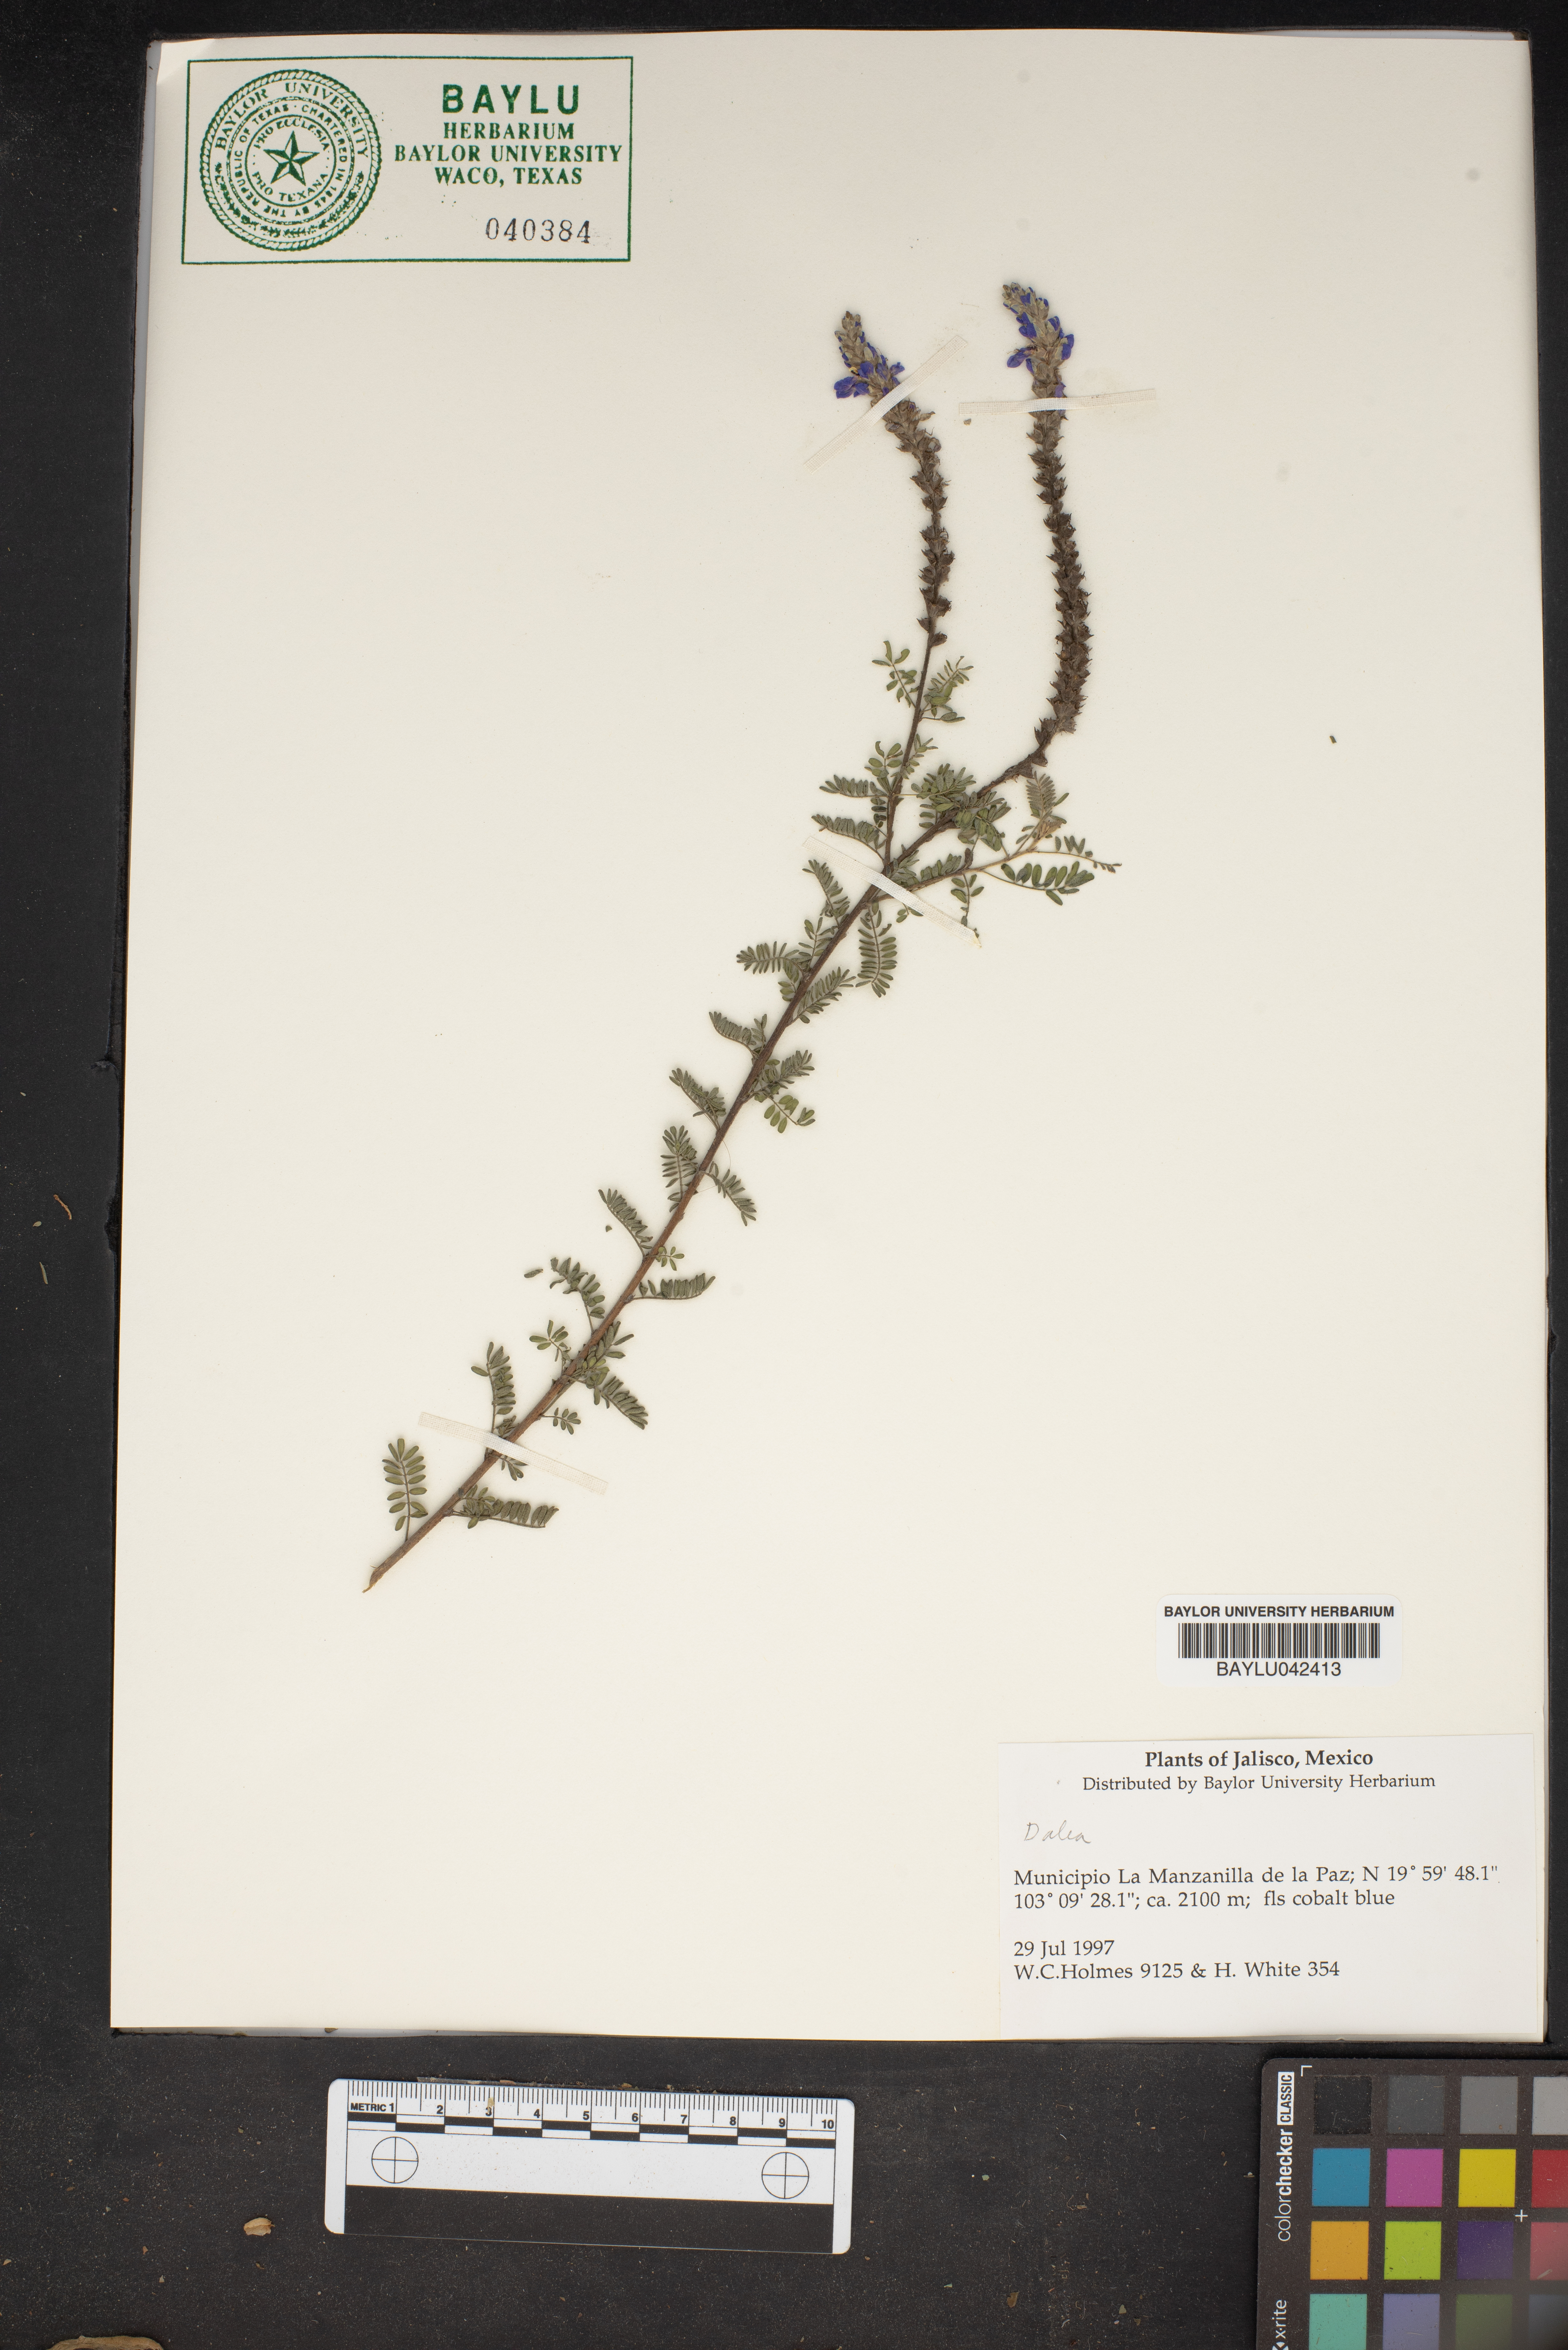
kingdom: Plantae
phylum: Tracheophyta
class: Magnoliopsida
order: Fabales
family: Fabaceae
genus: Dalea
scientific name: Dalea
